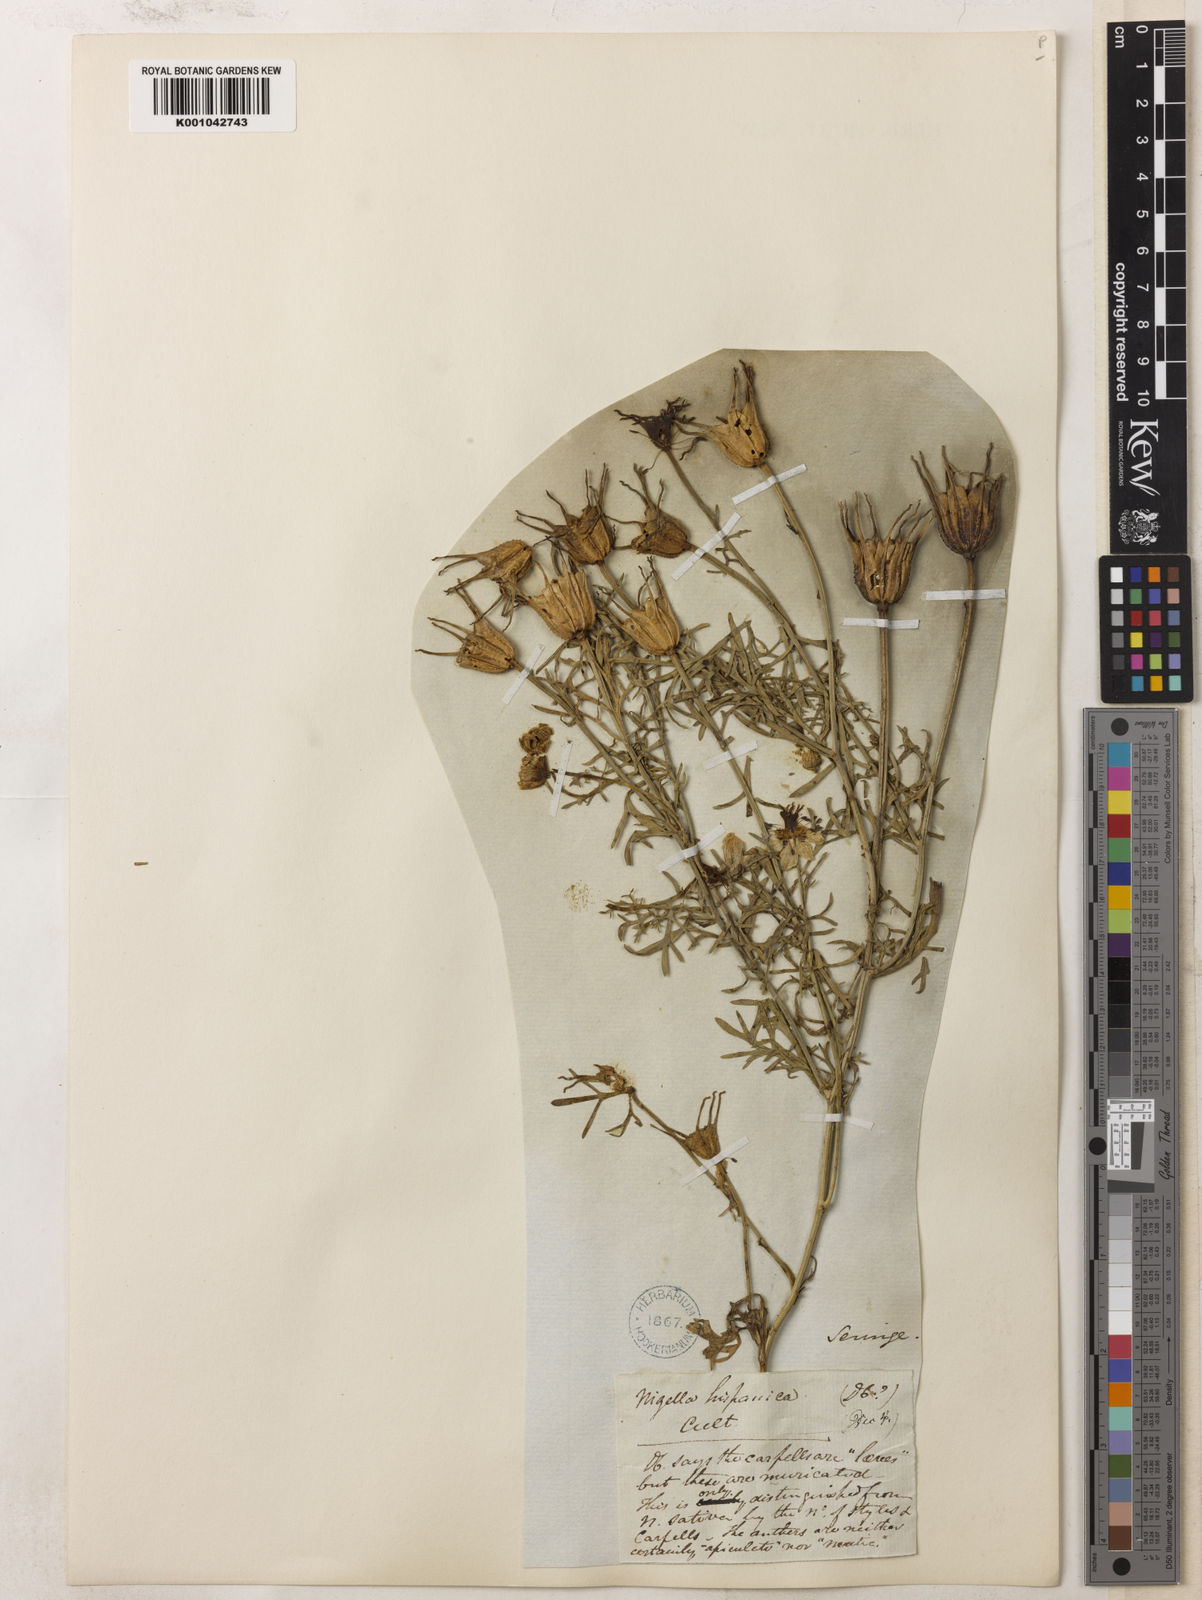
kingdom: Plantae
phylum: Tracheophyta
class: Magnoliopsida
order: Ranunculales
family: Ranunculaceae
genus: Nigella
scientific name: Nigella hispanica
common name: Fennel-flower
